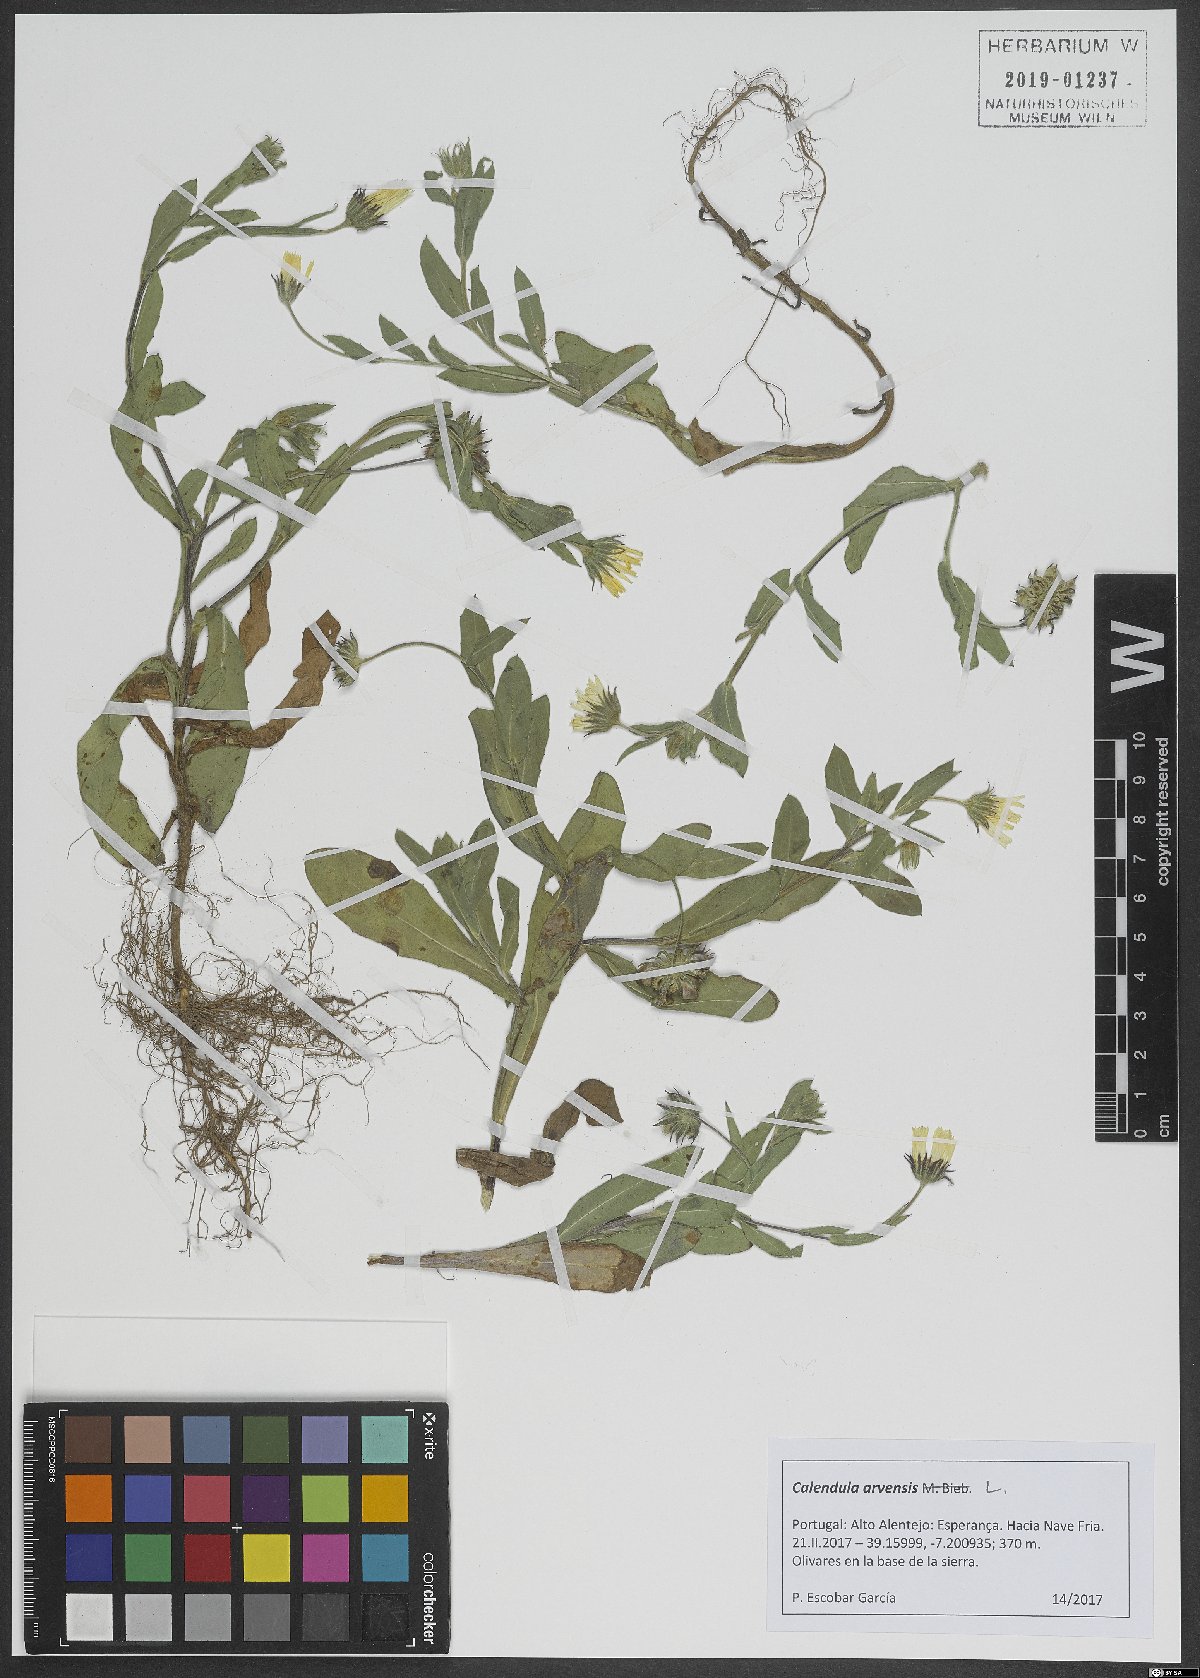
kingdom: Plantae
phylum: Tracheophyta
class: Magnoliopsida
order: Asterales
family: Asteraceae
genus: Calendula
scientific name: Calendula arvensis
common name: Field marigold
